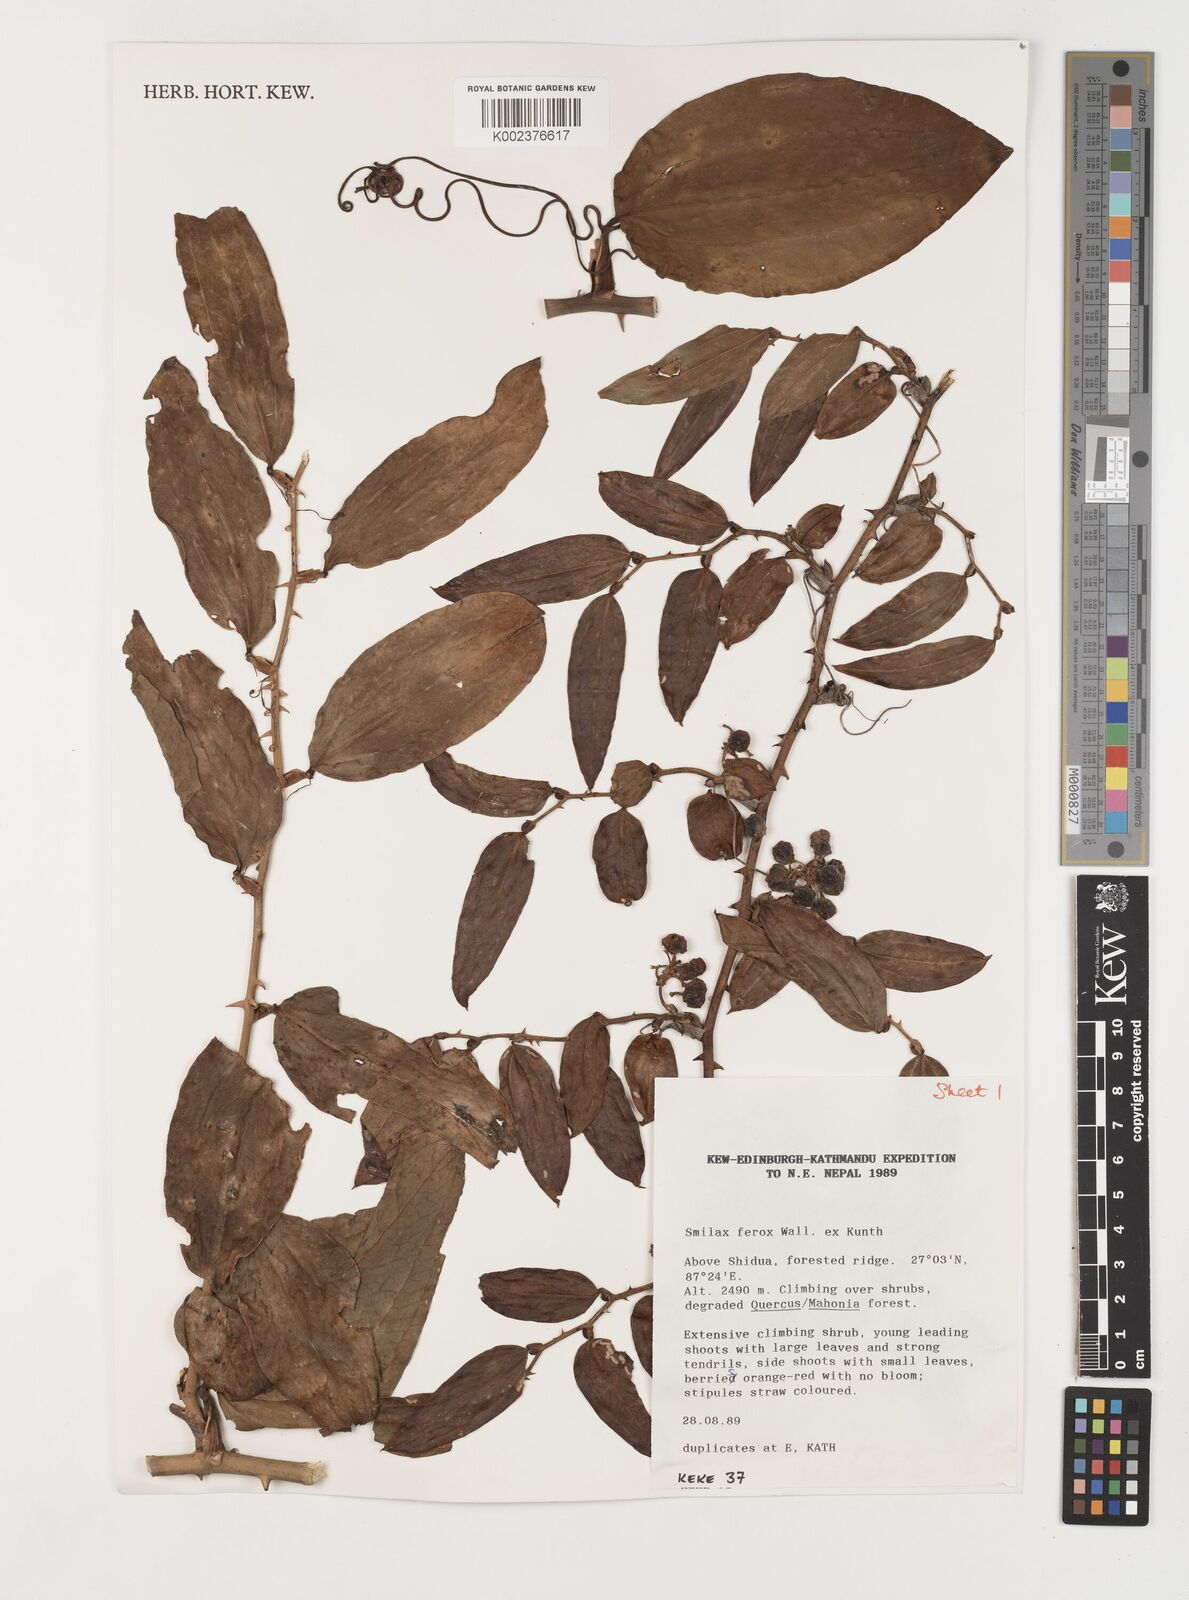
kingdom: Plantae
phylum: Tracheophyta
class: Liliopsida
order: Liliales
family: Smilacaceae
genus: Smilax
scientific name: Smilax ferox
